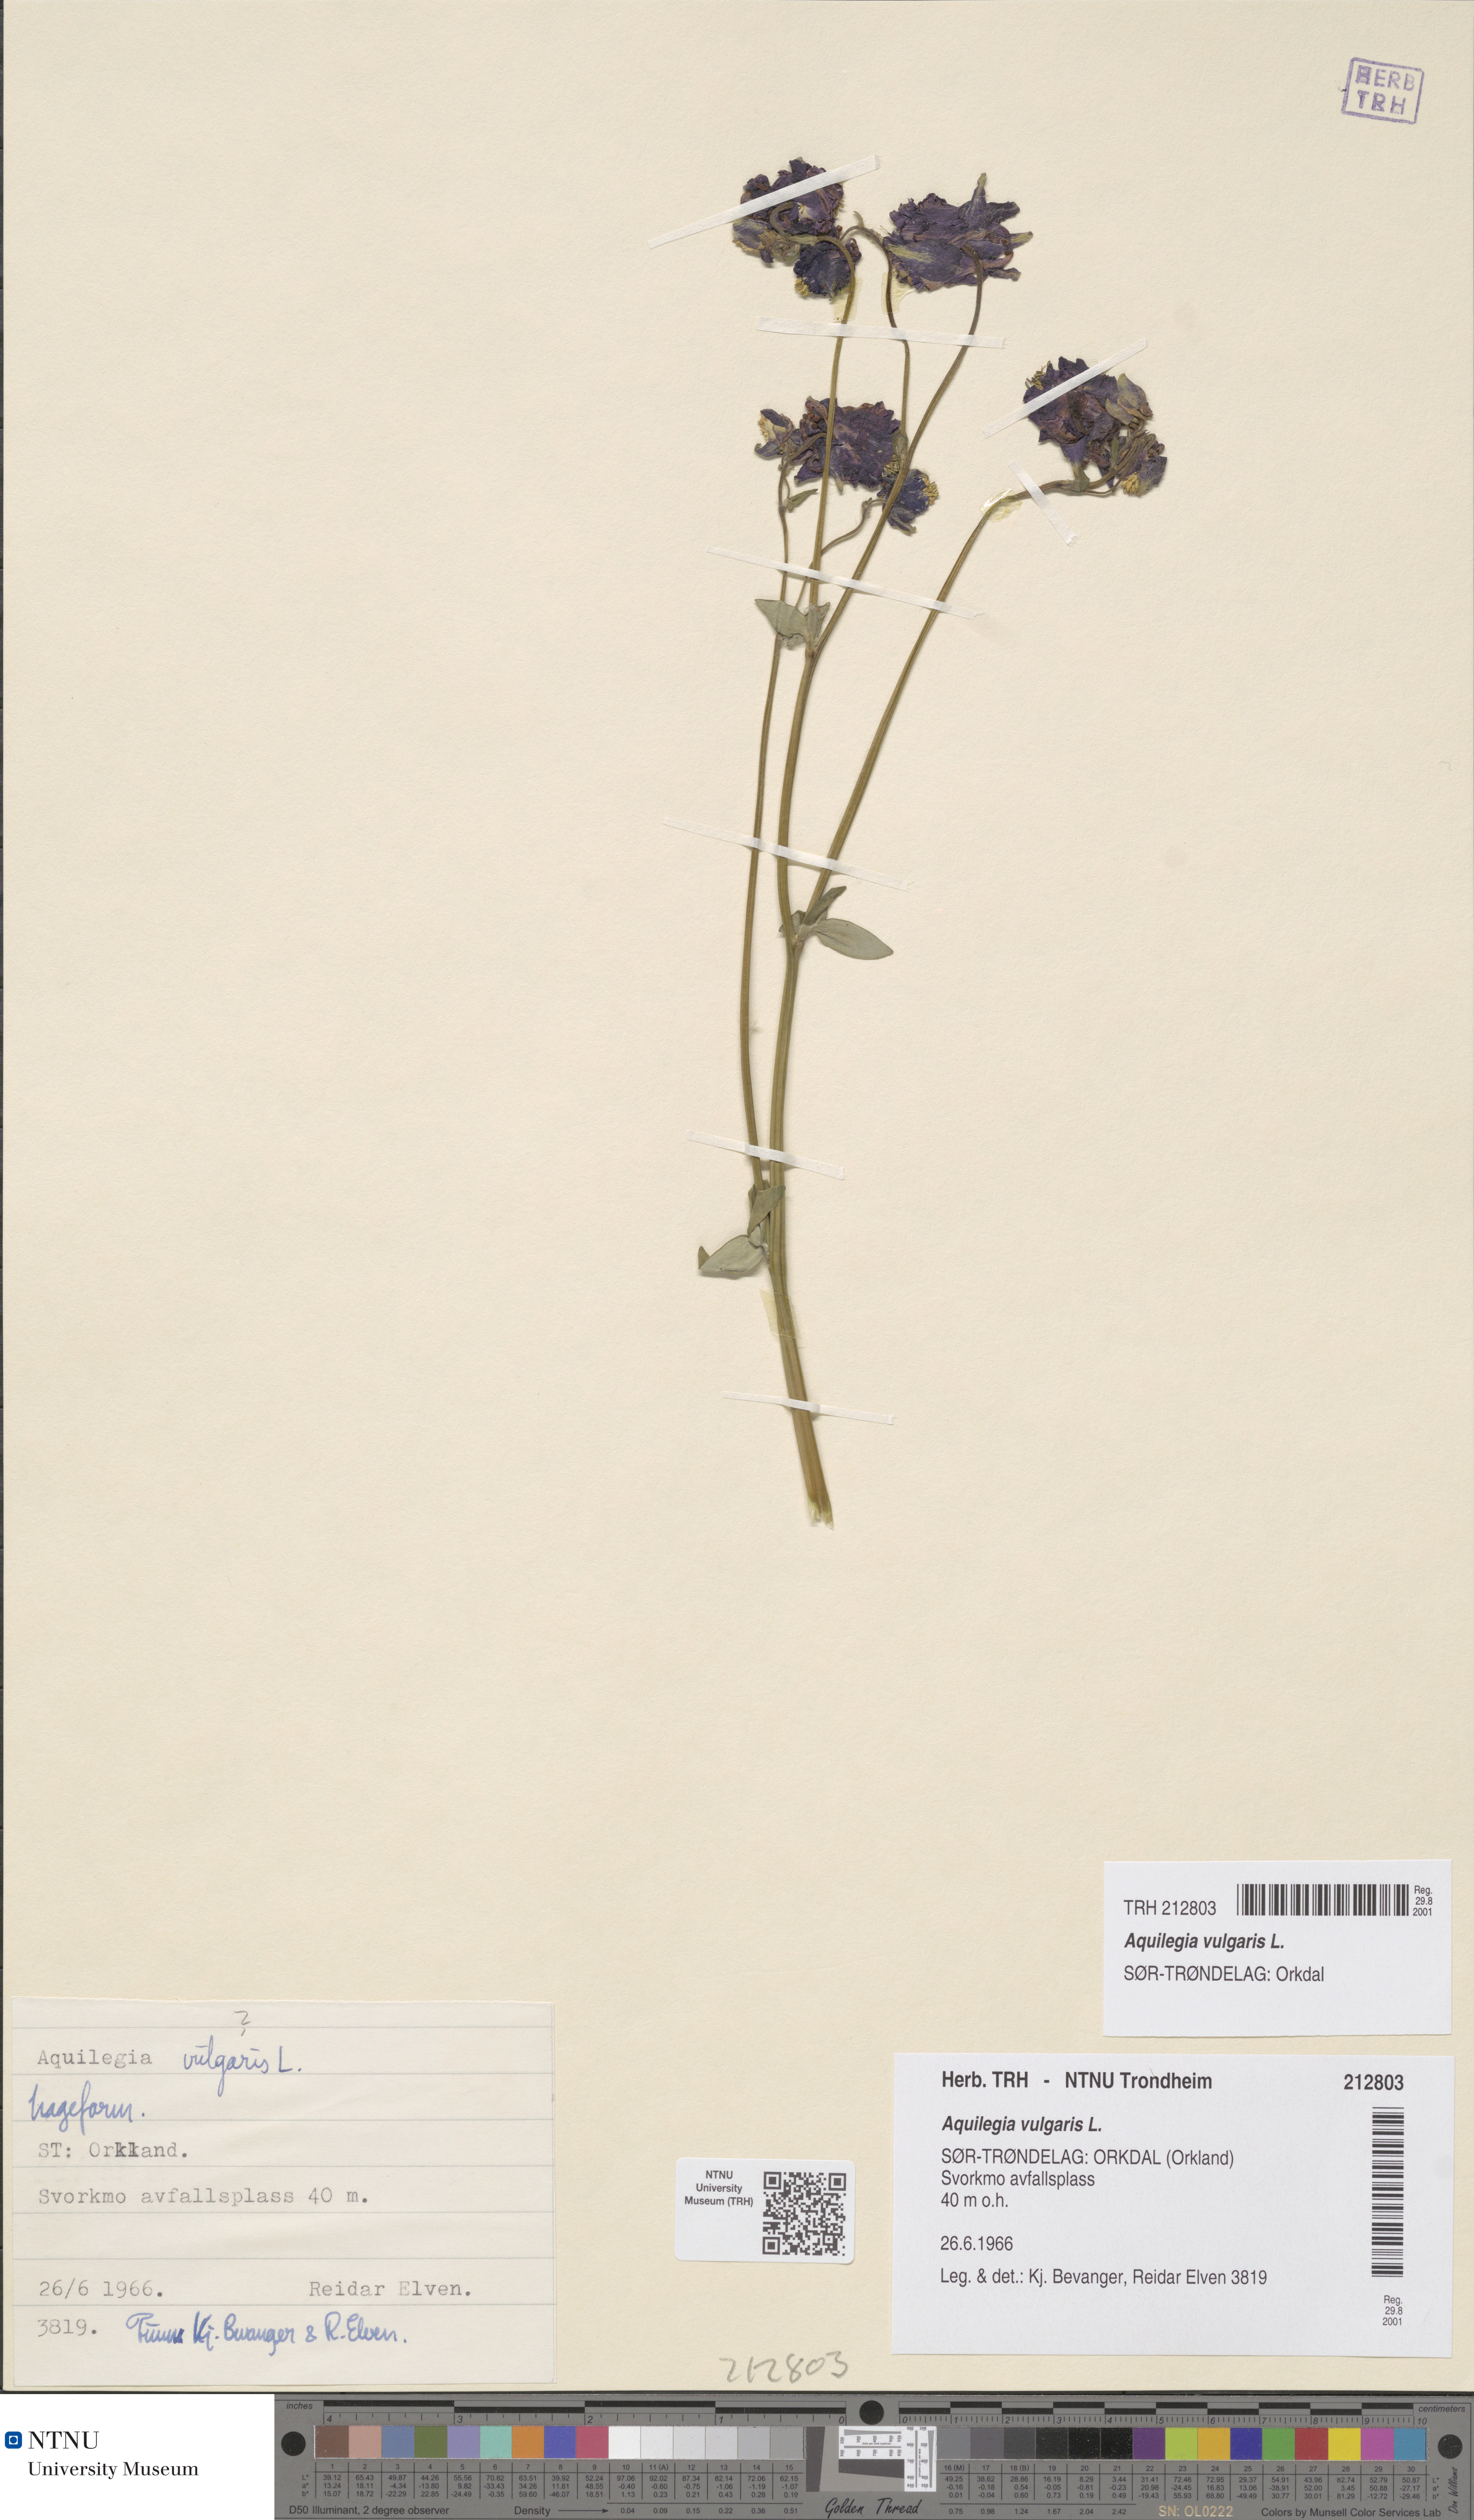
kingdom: Plantae
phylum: Tracheophyta
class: Magnoliopsida
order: Ranunculales
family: Ranunculaceae
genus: Aquilegia
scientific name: Aquilegia vulgaris
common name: Columbine
